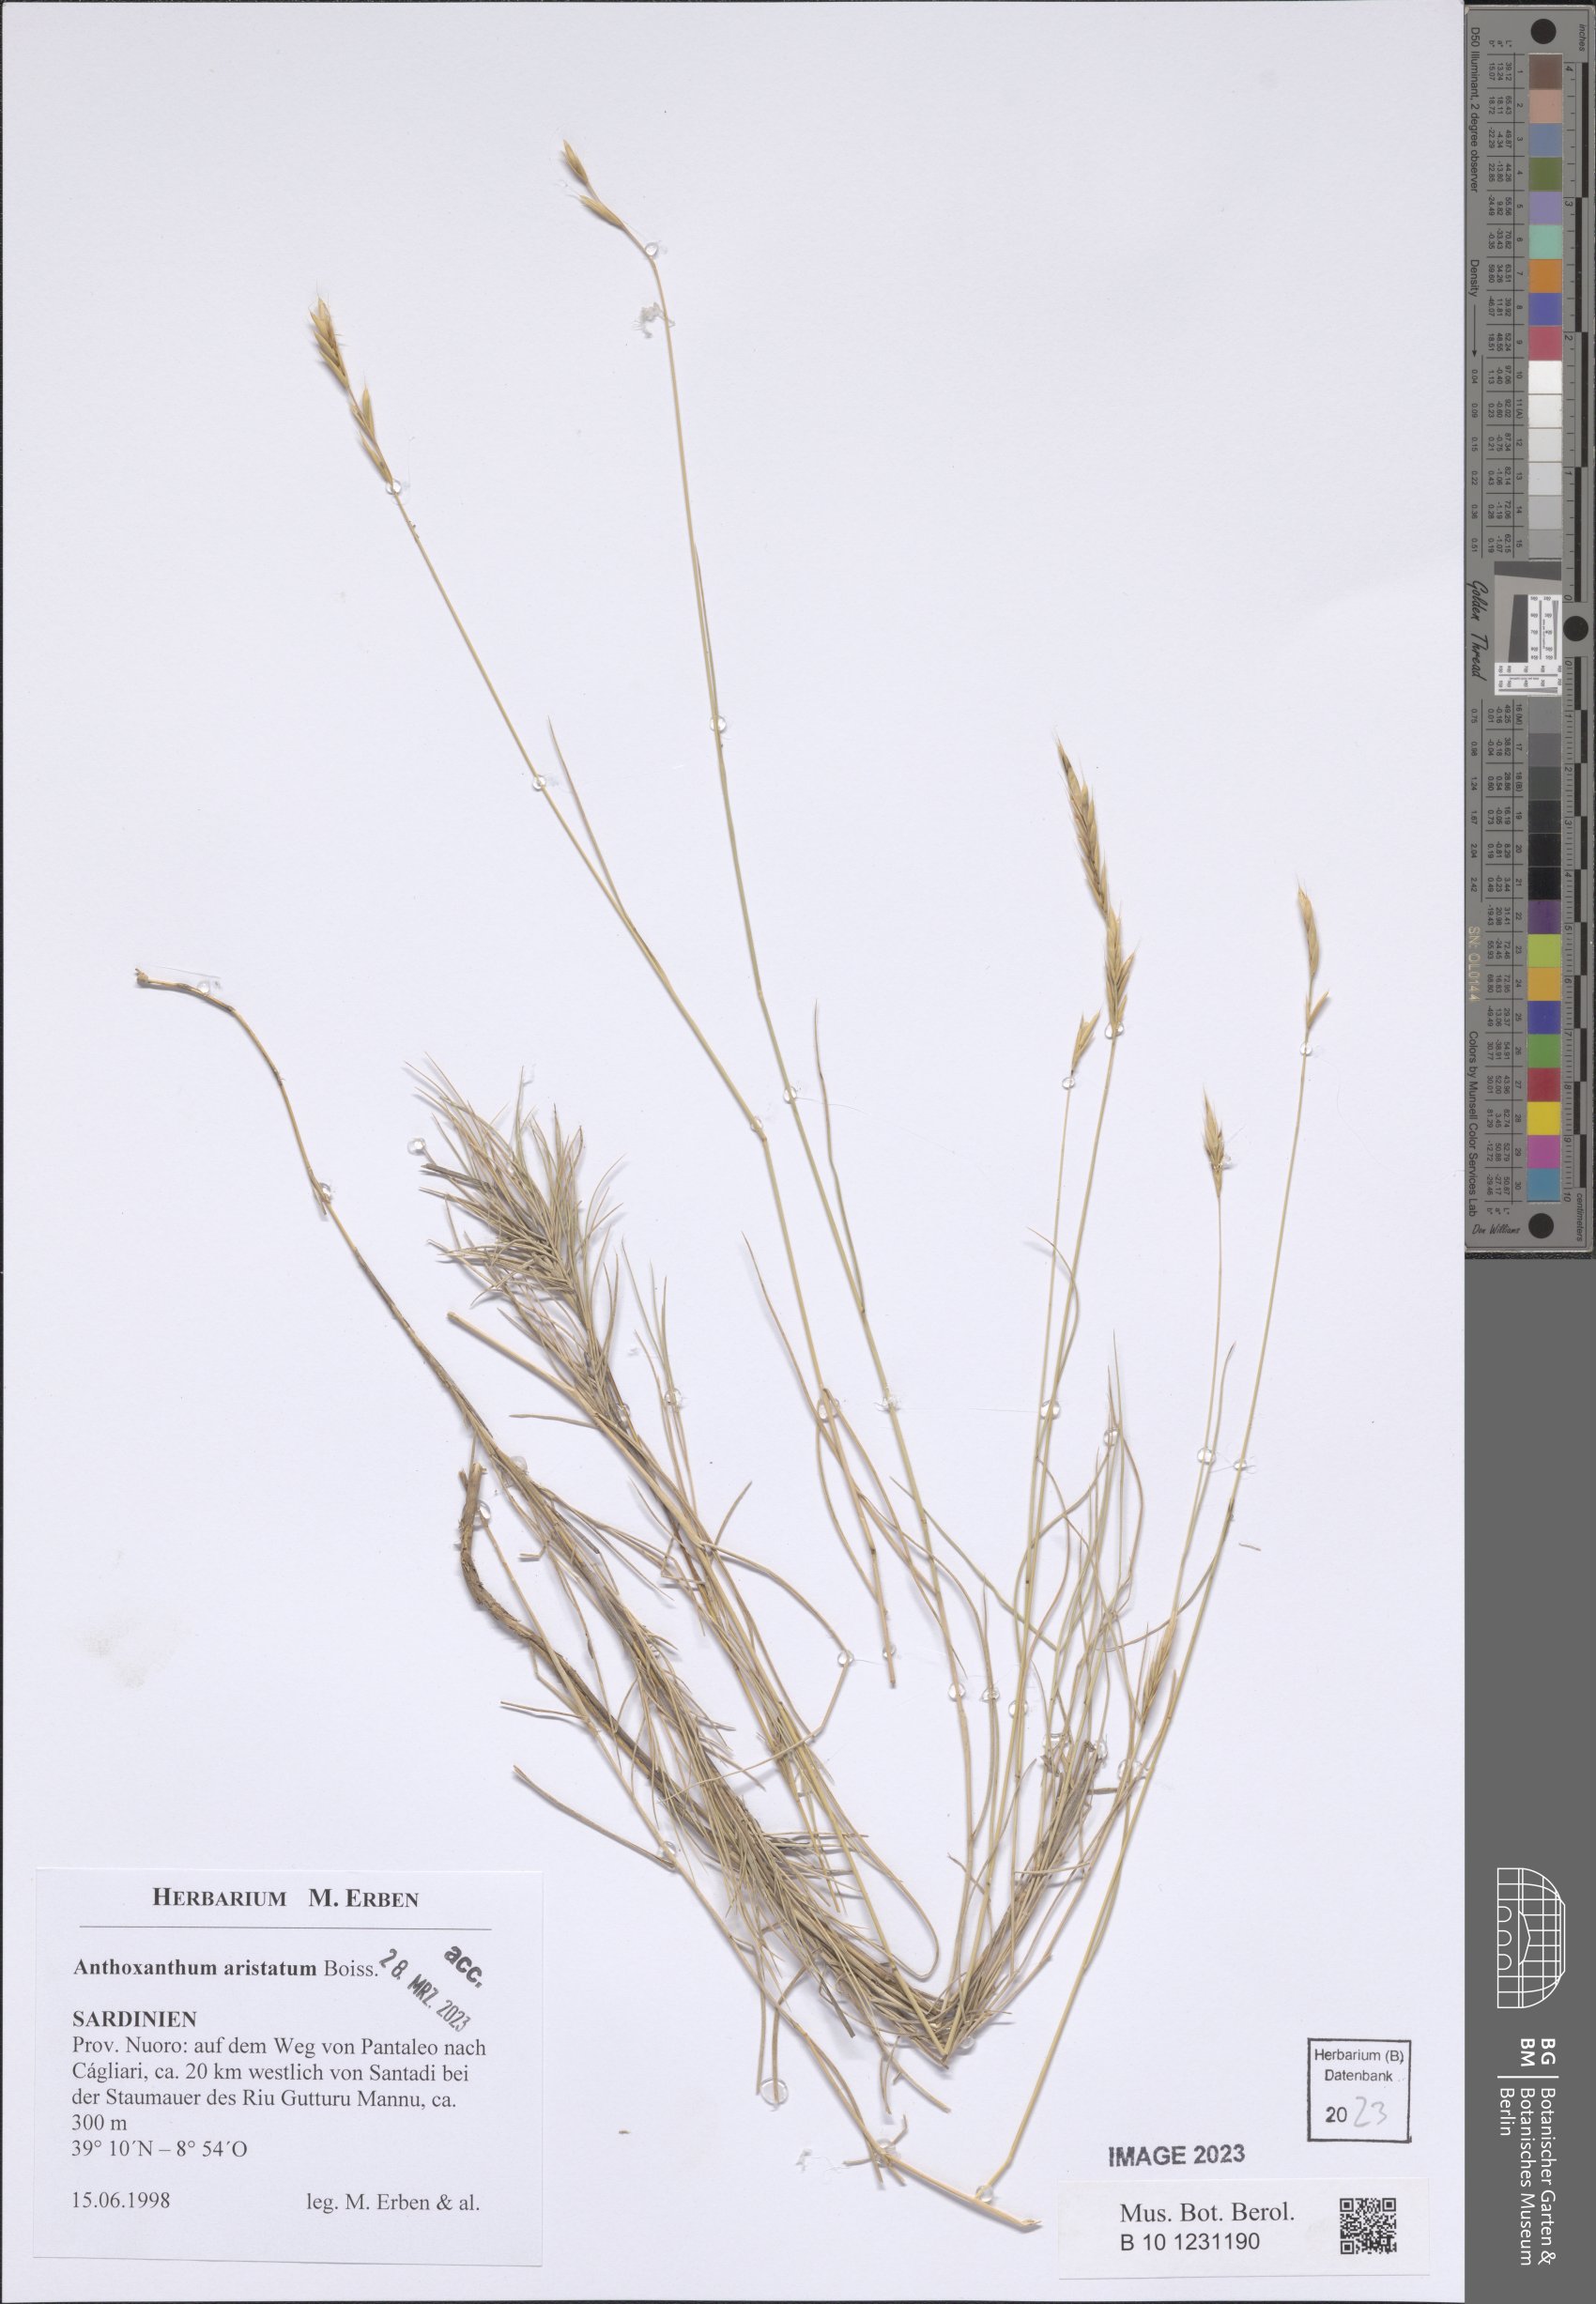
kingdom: Plantae
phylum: Tracheophyta
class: Liliopsida
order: Poales
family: Poaceae
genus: Anthoxanthum
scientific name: Anthoxanthum aristatum
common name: Annual vernal-grass
